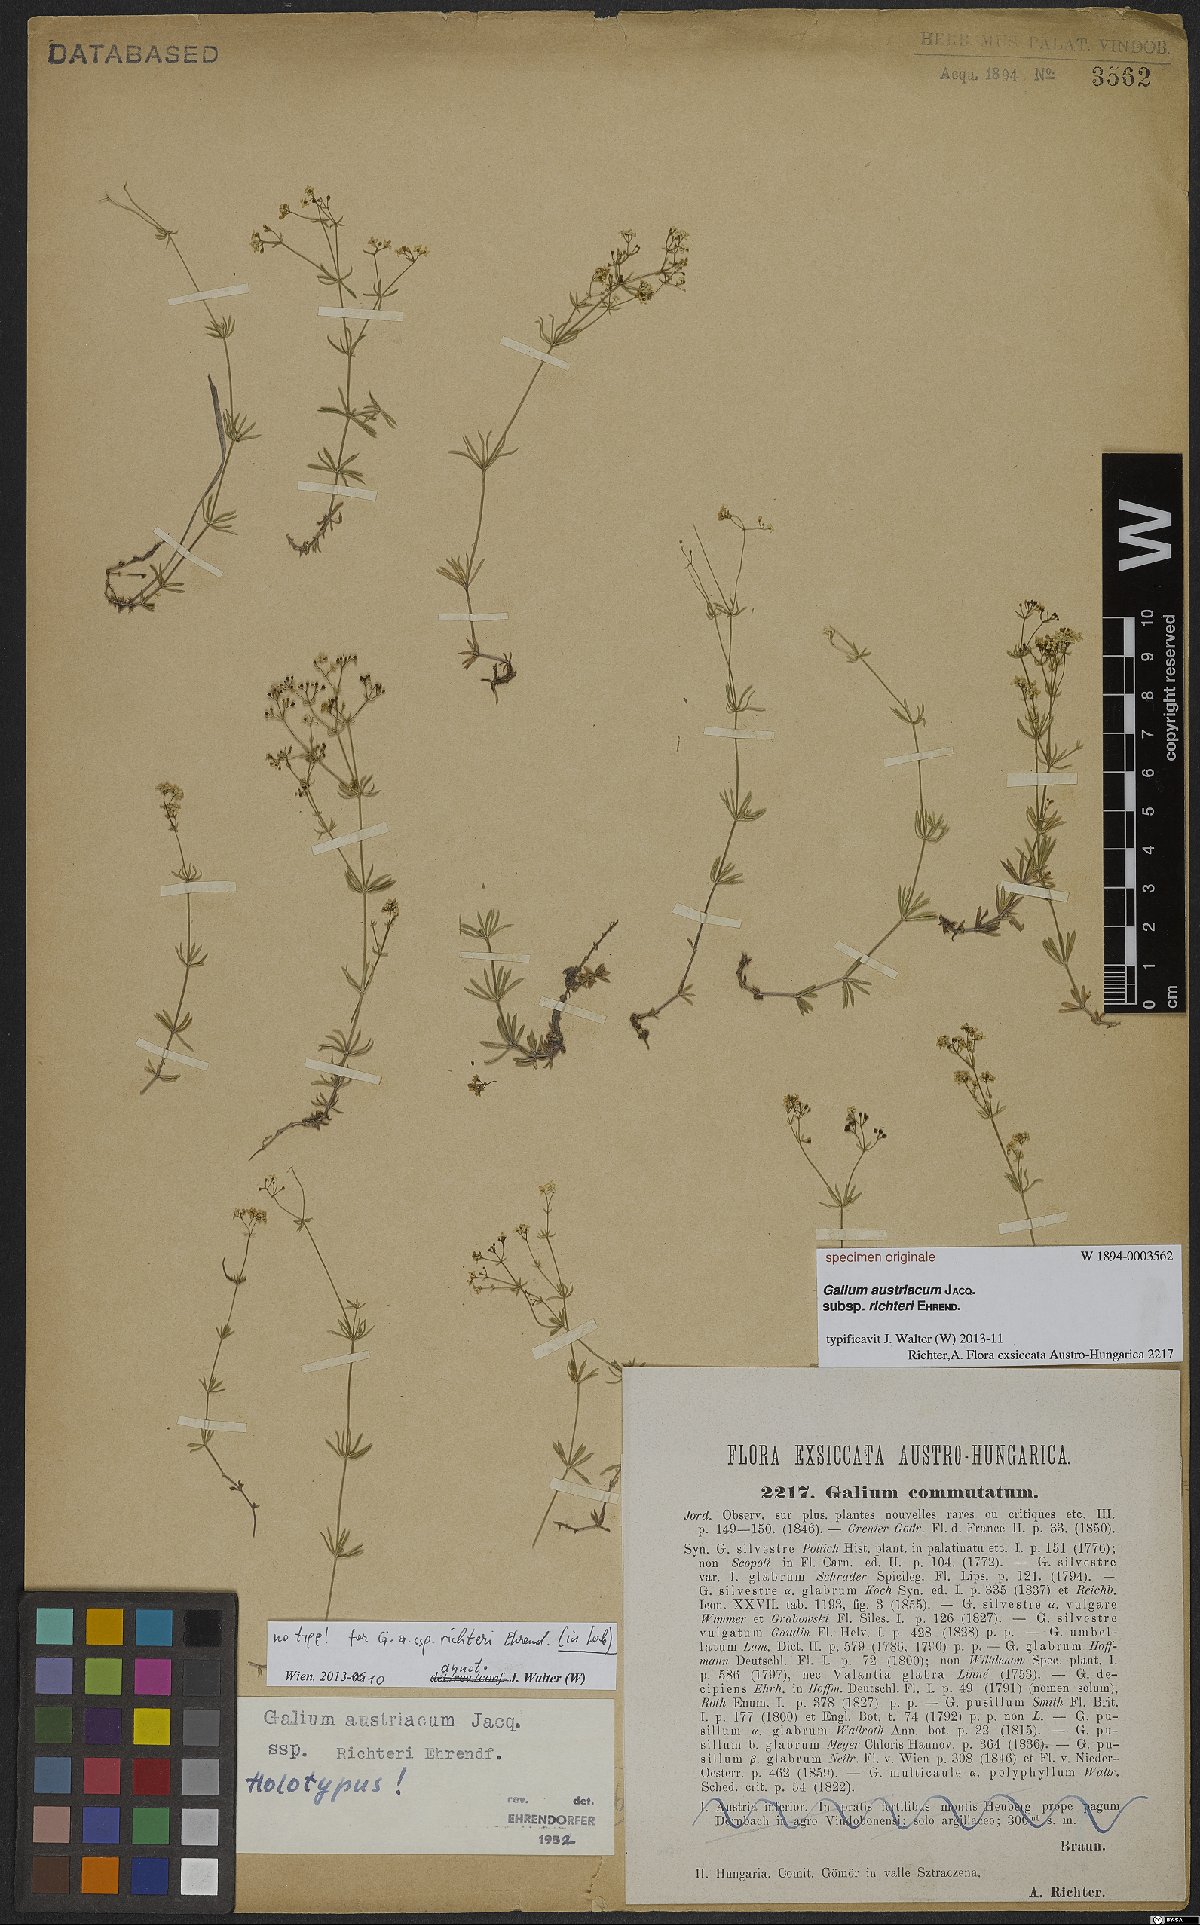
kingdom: Plantae
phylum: Tracheophyta
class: Magnoliopsida
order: Gentianales
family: Rubiaceae
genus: Galium
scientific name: Galium austriacum
